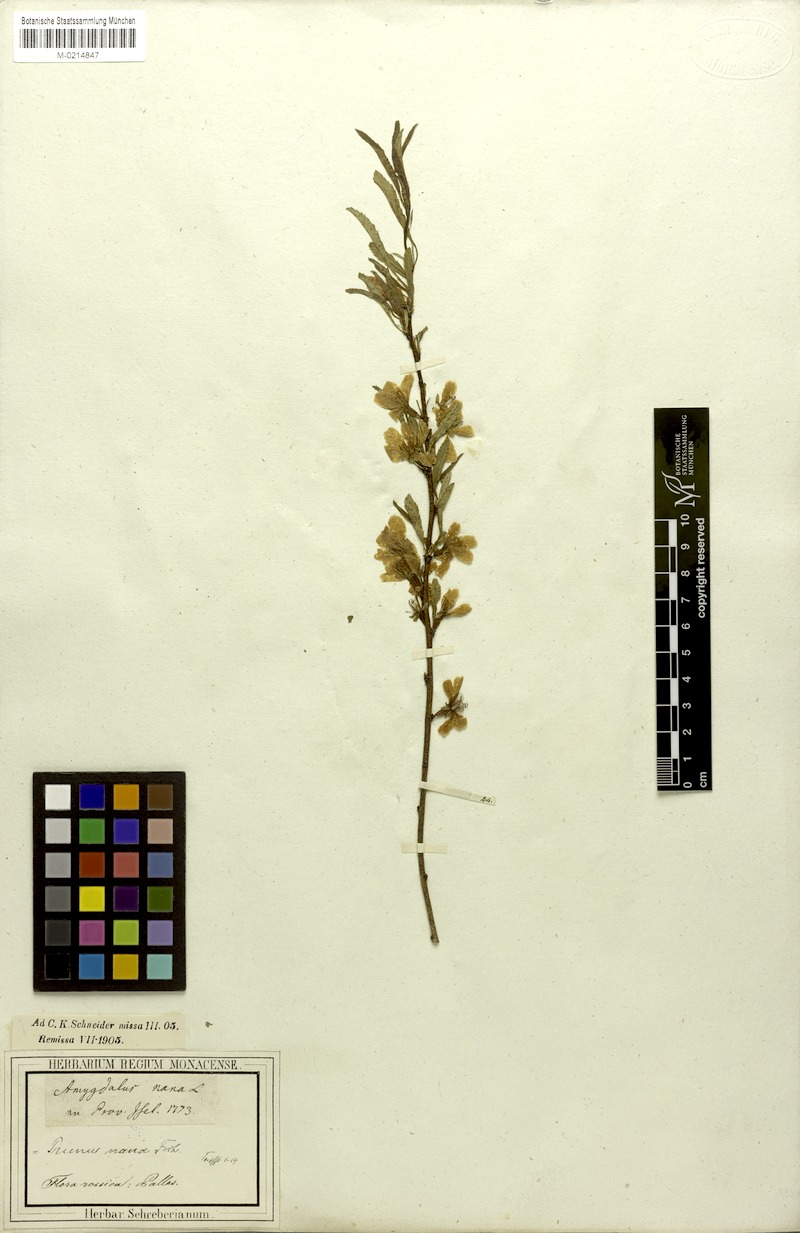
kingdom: Plantae
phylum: Tracheophyta
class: Magnoliopsida
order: Rosales
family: Rosaceae
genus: Prunus
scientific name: Prunus tenella
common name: Dwarf russian almond
